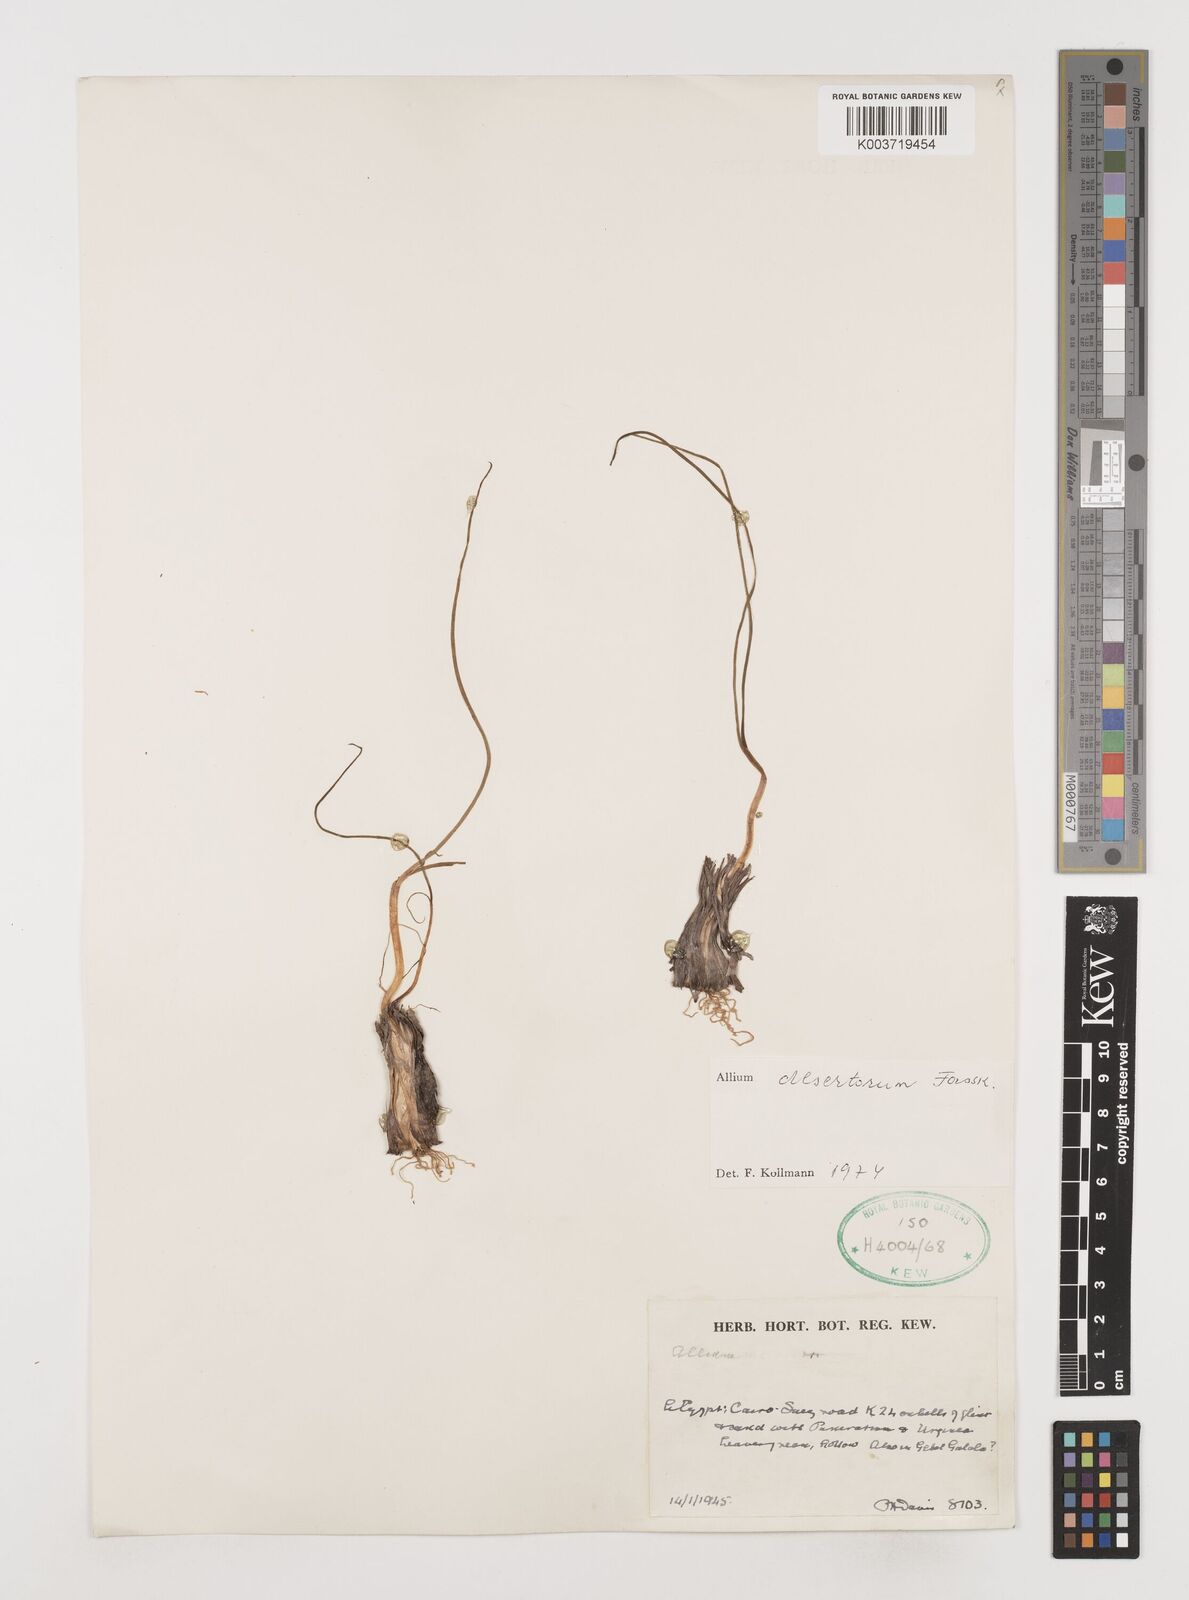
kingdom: Plantae
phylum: Tracheophyta
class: Liliopsida
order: Asparagales
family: Amaryllidaceae
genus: Allium
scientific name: Allium desertorum
